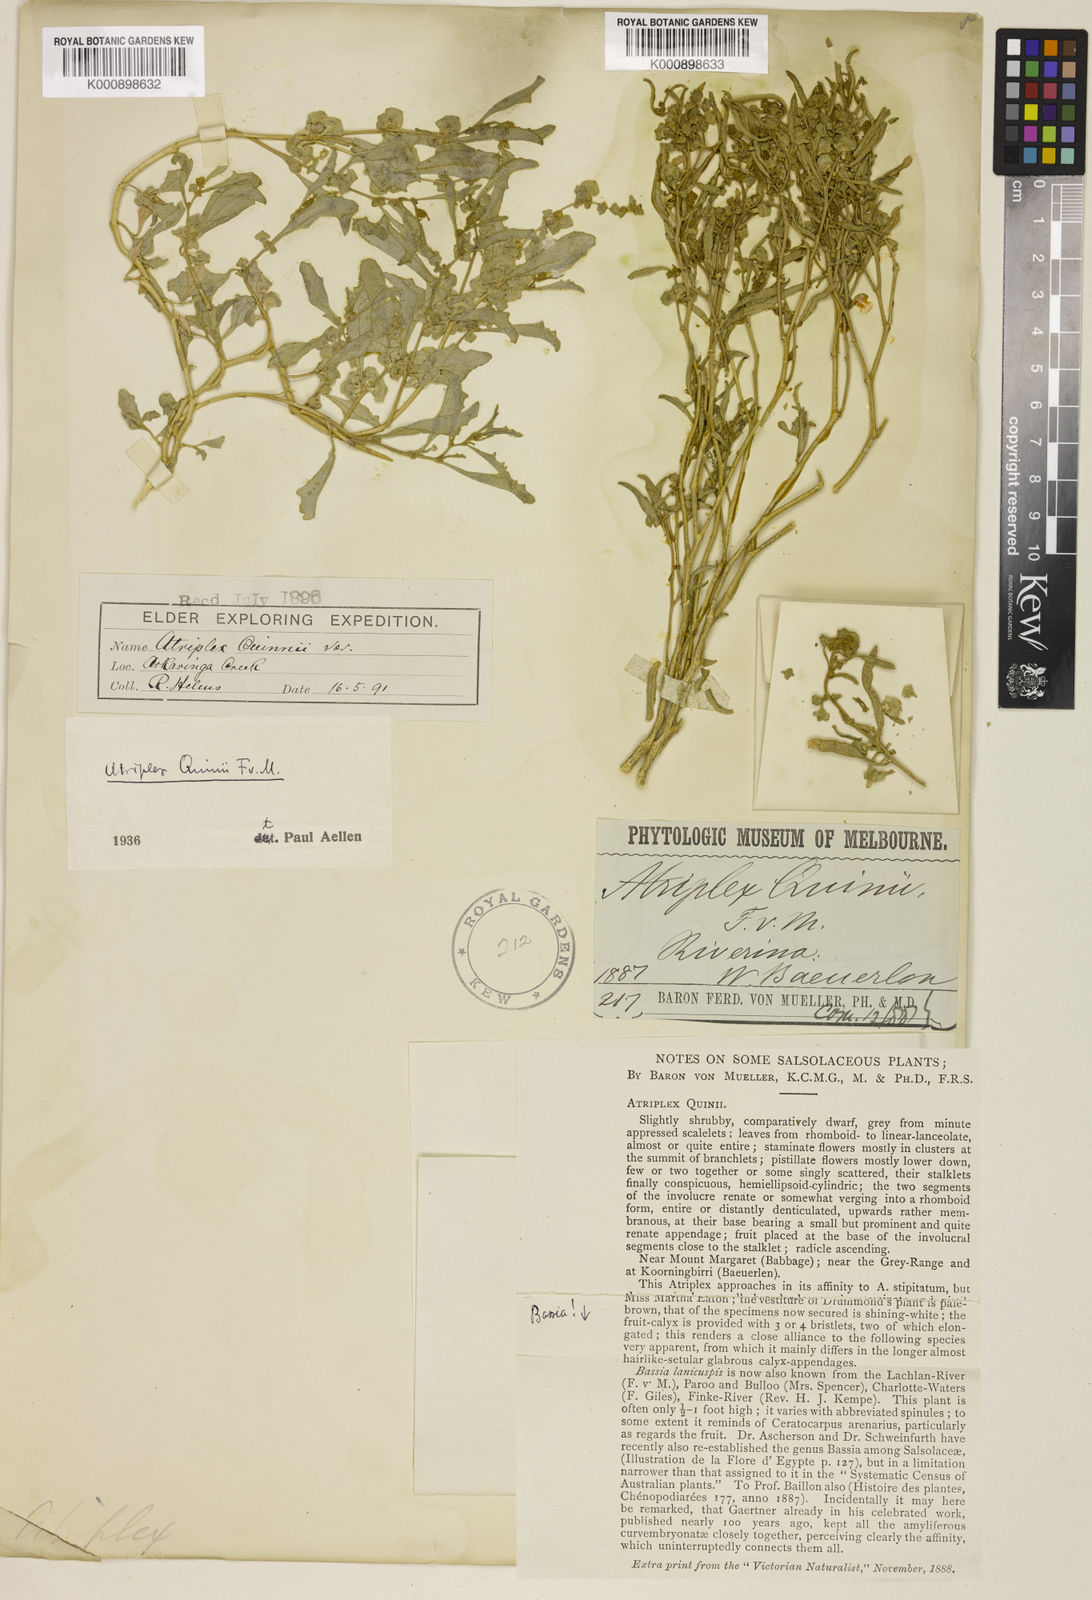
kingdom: Plantae
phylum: Tracheophyta
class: Magnoliopsida
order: Caryophyllales
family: Amaranthaceae
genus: Atriplex
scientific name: Atriplex quinii
